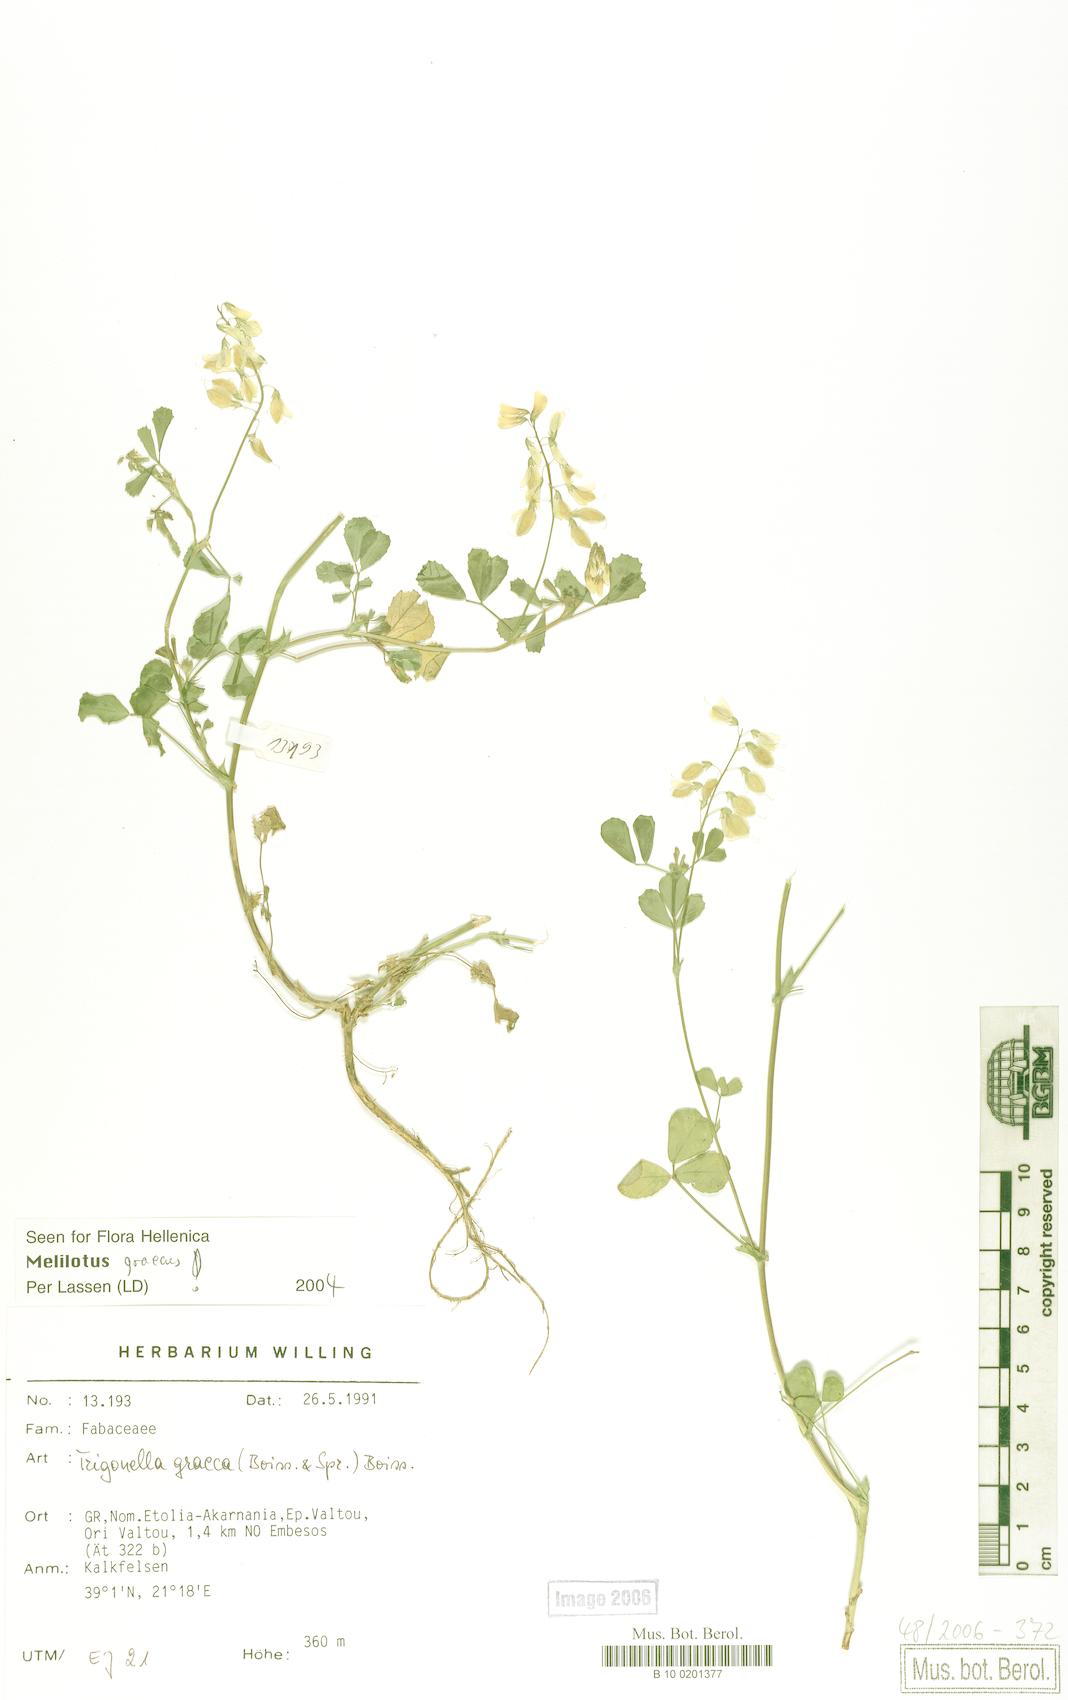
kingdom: Plantae
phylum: Tracheophyta
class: Magnoliopsida
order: Fabales
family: Fabaceae
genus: Trigonella
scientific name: Trigonella graeca
